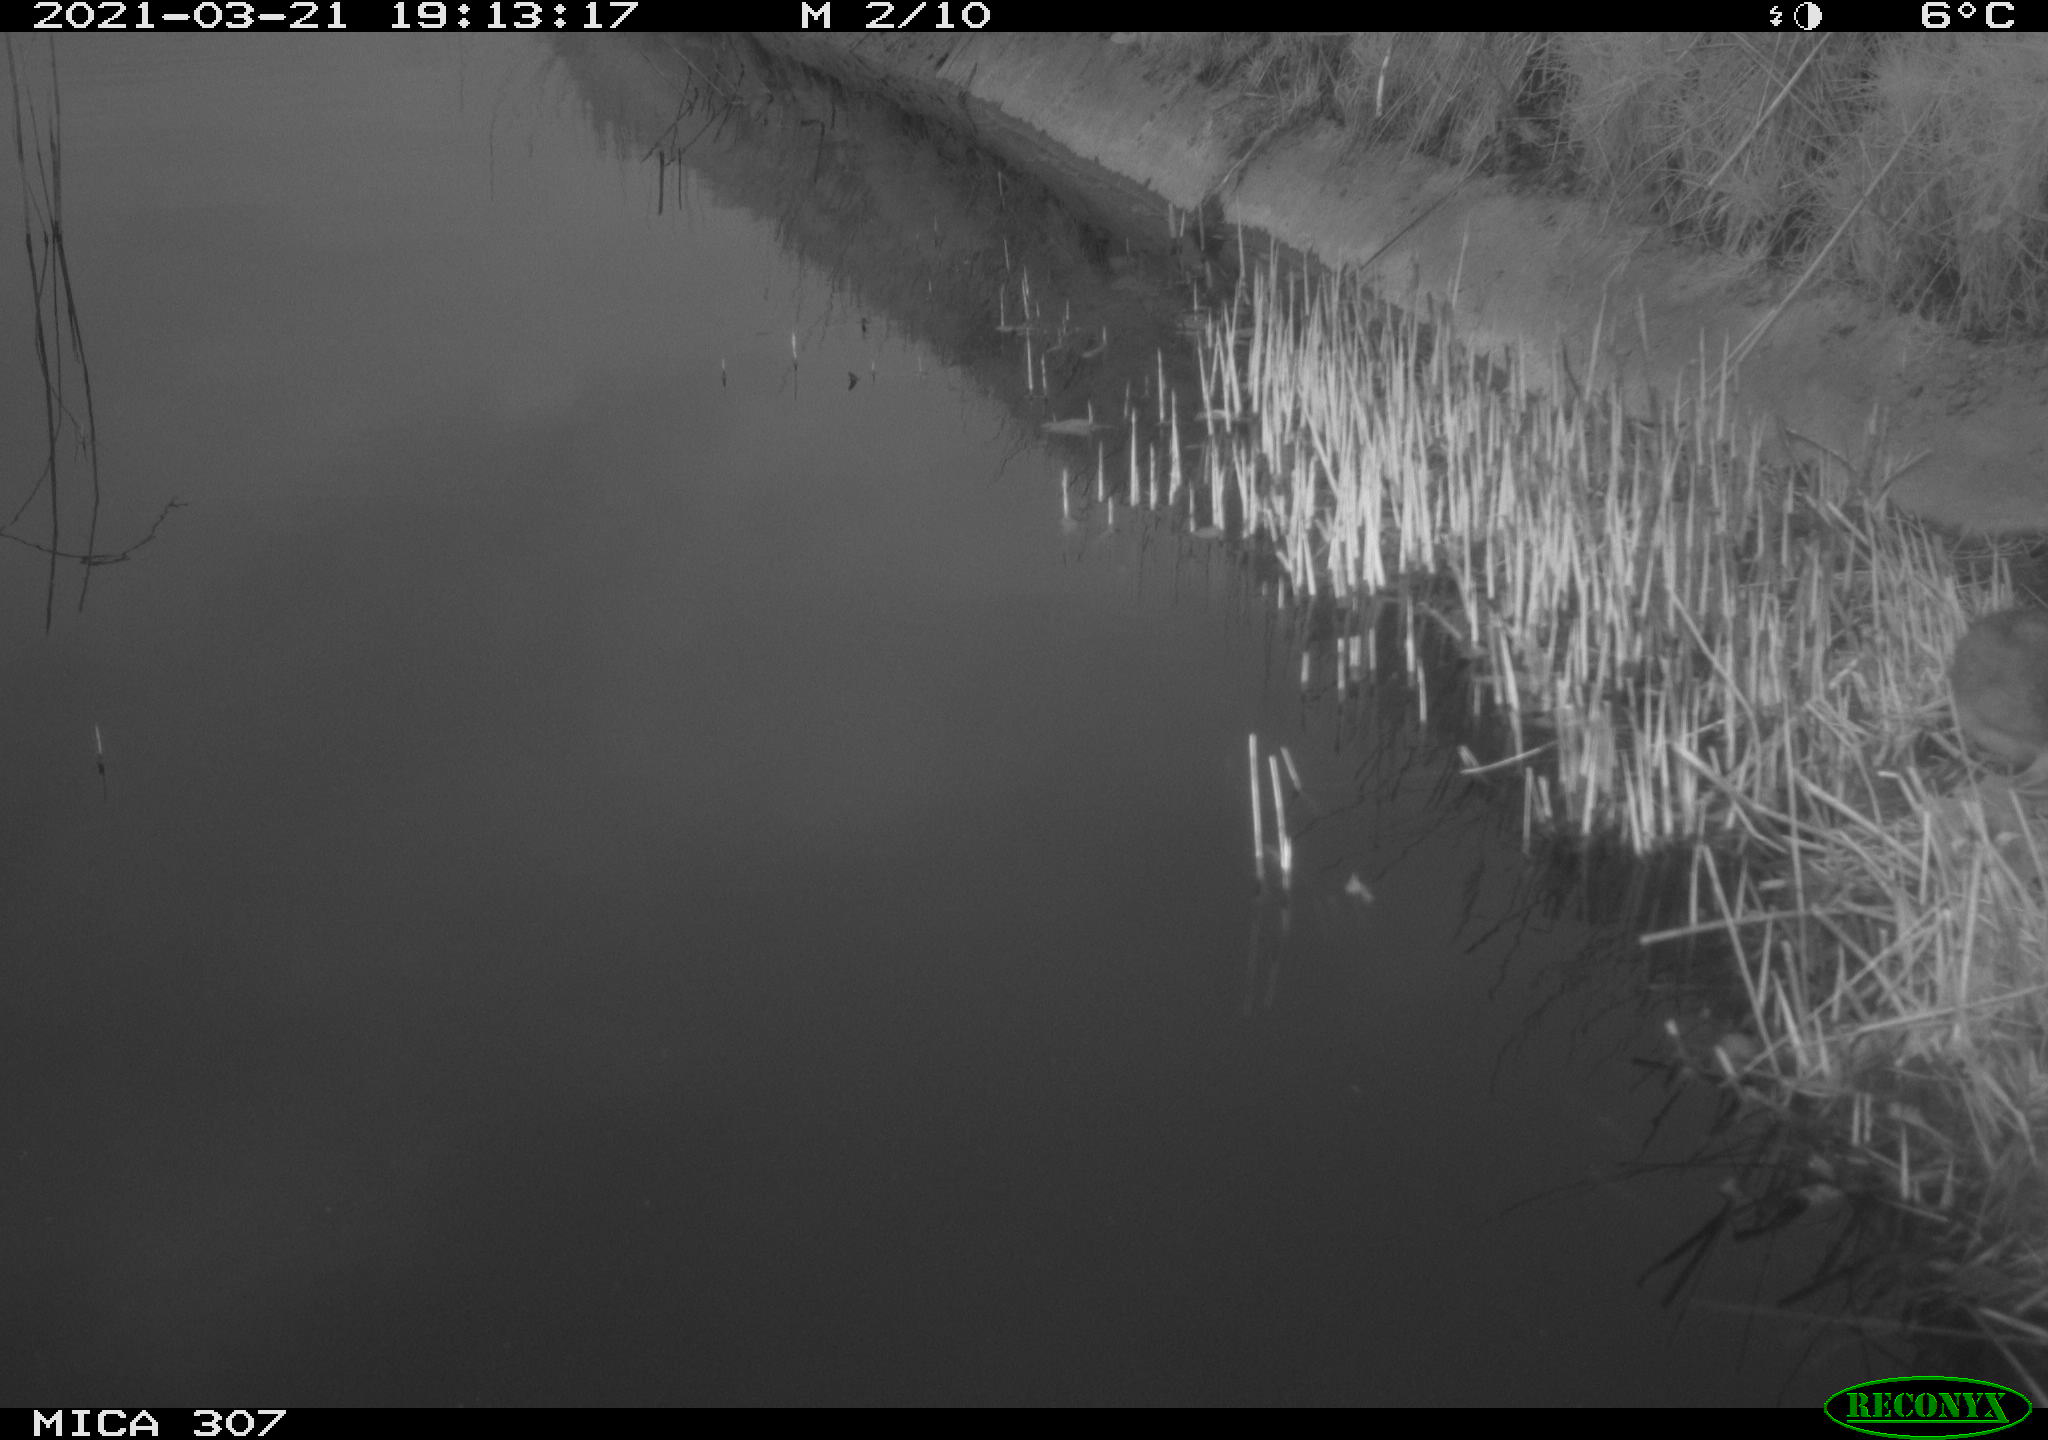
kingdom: Animalia
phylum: Chordata
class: Mammalia
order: Rodentia
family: Muridae
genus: Rattus
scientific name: Rattus norvegicus
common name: Brown rat
